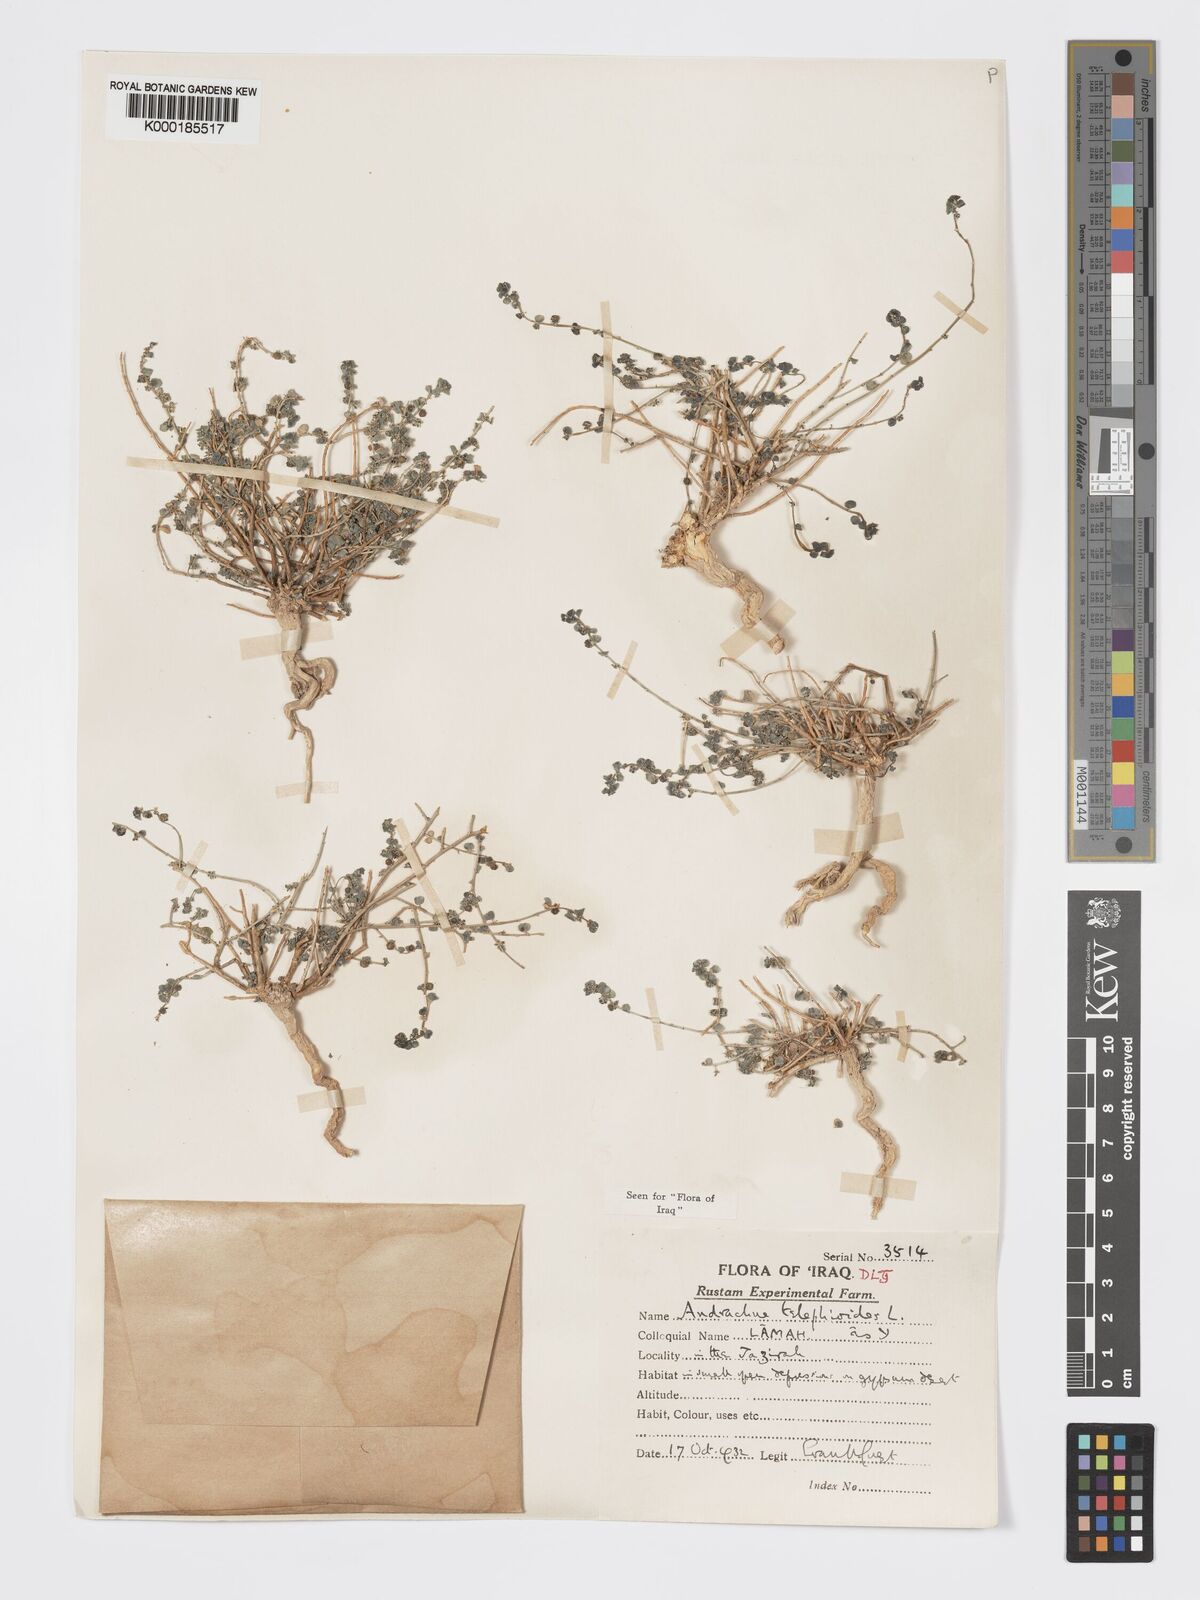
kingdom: Plantae
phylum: Tracheophyta
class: Magnoliopsida
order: Malpighiales
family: Phyllanthaceae
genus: Andrachne
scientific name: Andrachne telephioides
